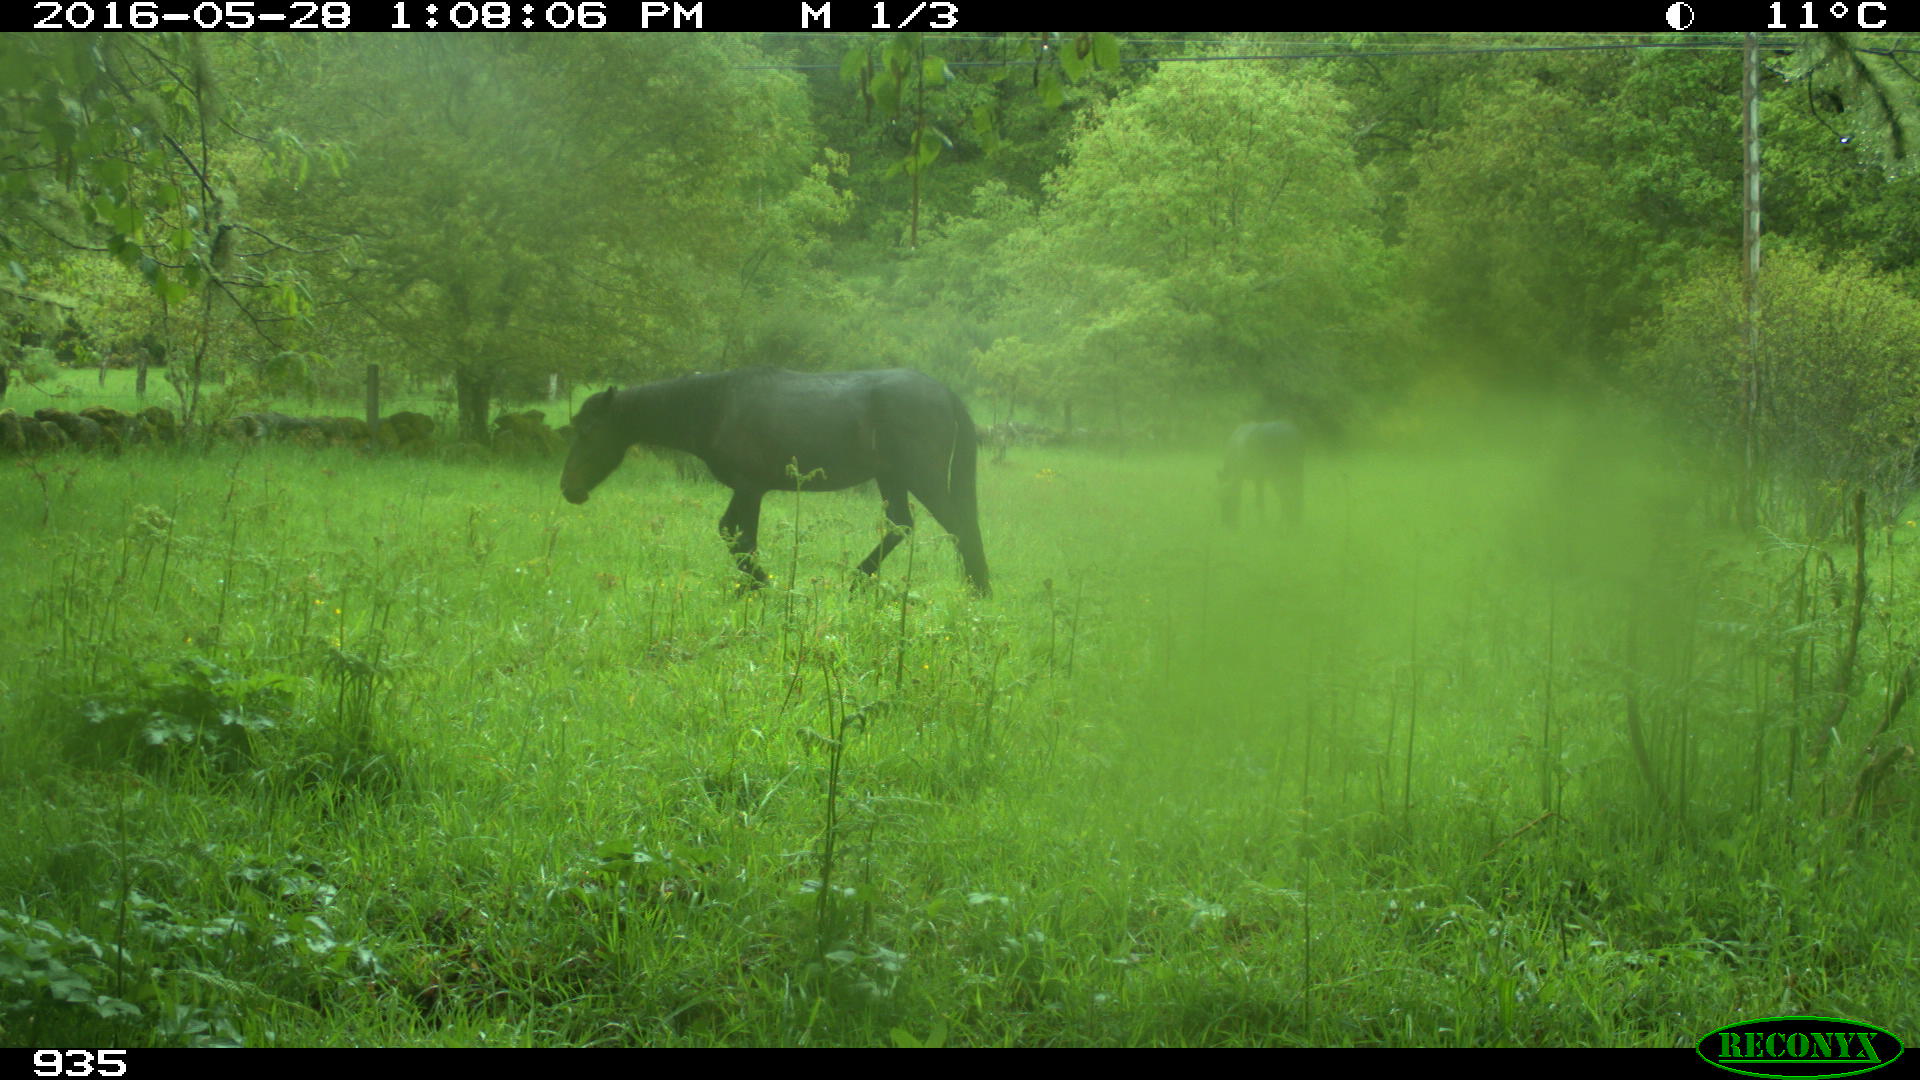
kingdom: Animalia
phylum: Chordata
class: Mammalia
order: Perissodactyla
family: Equidae
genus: Equus
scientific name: Equus caballus
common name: Horse
